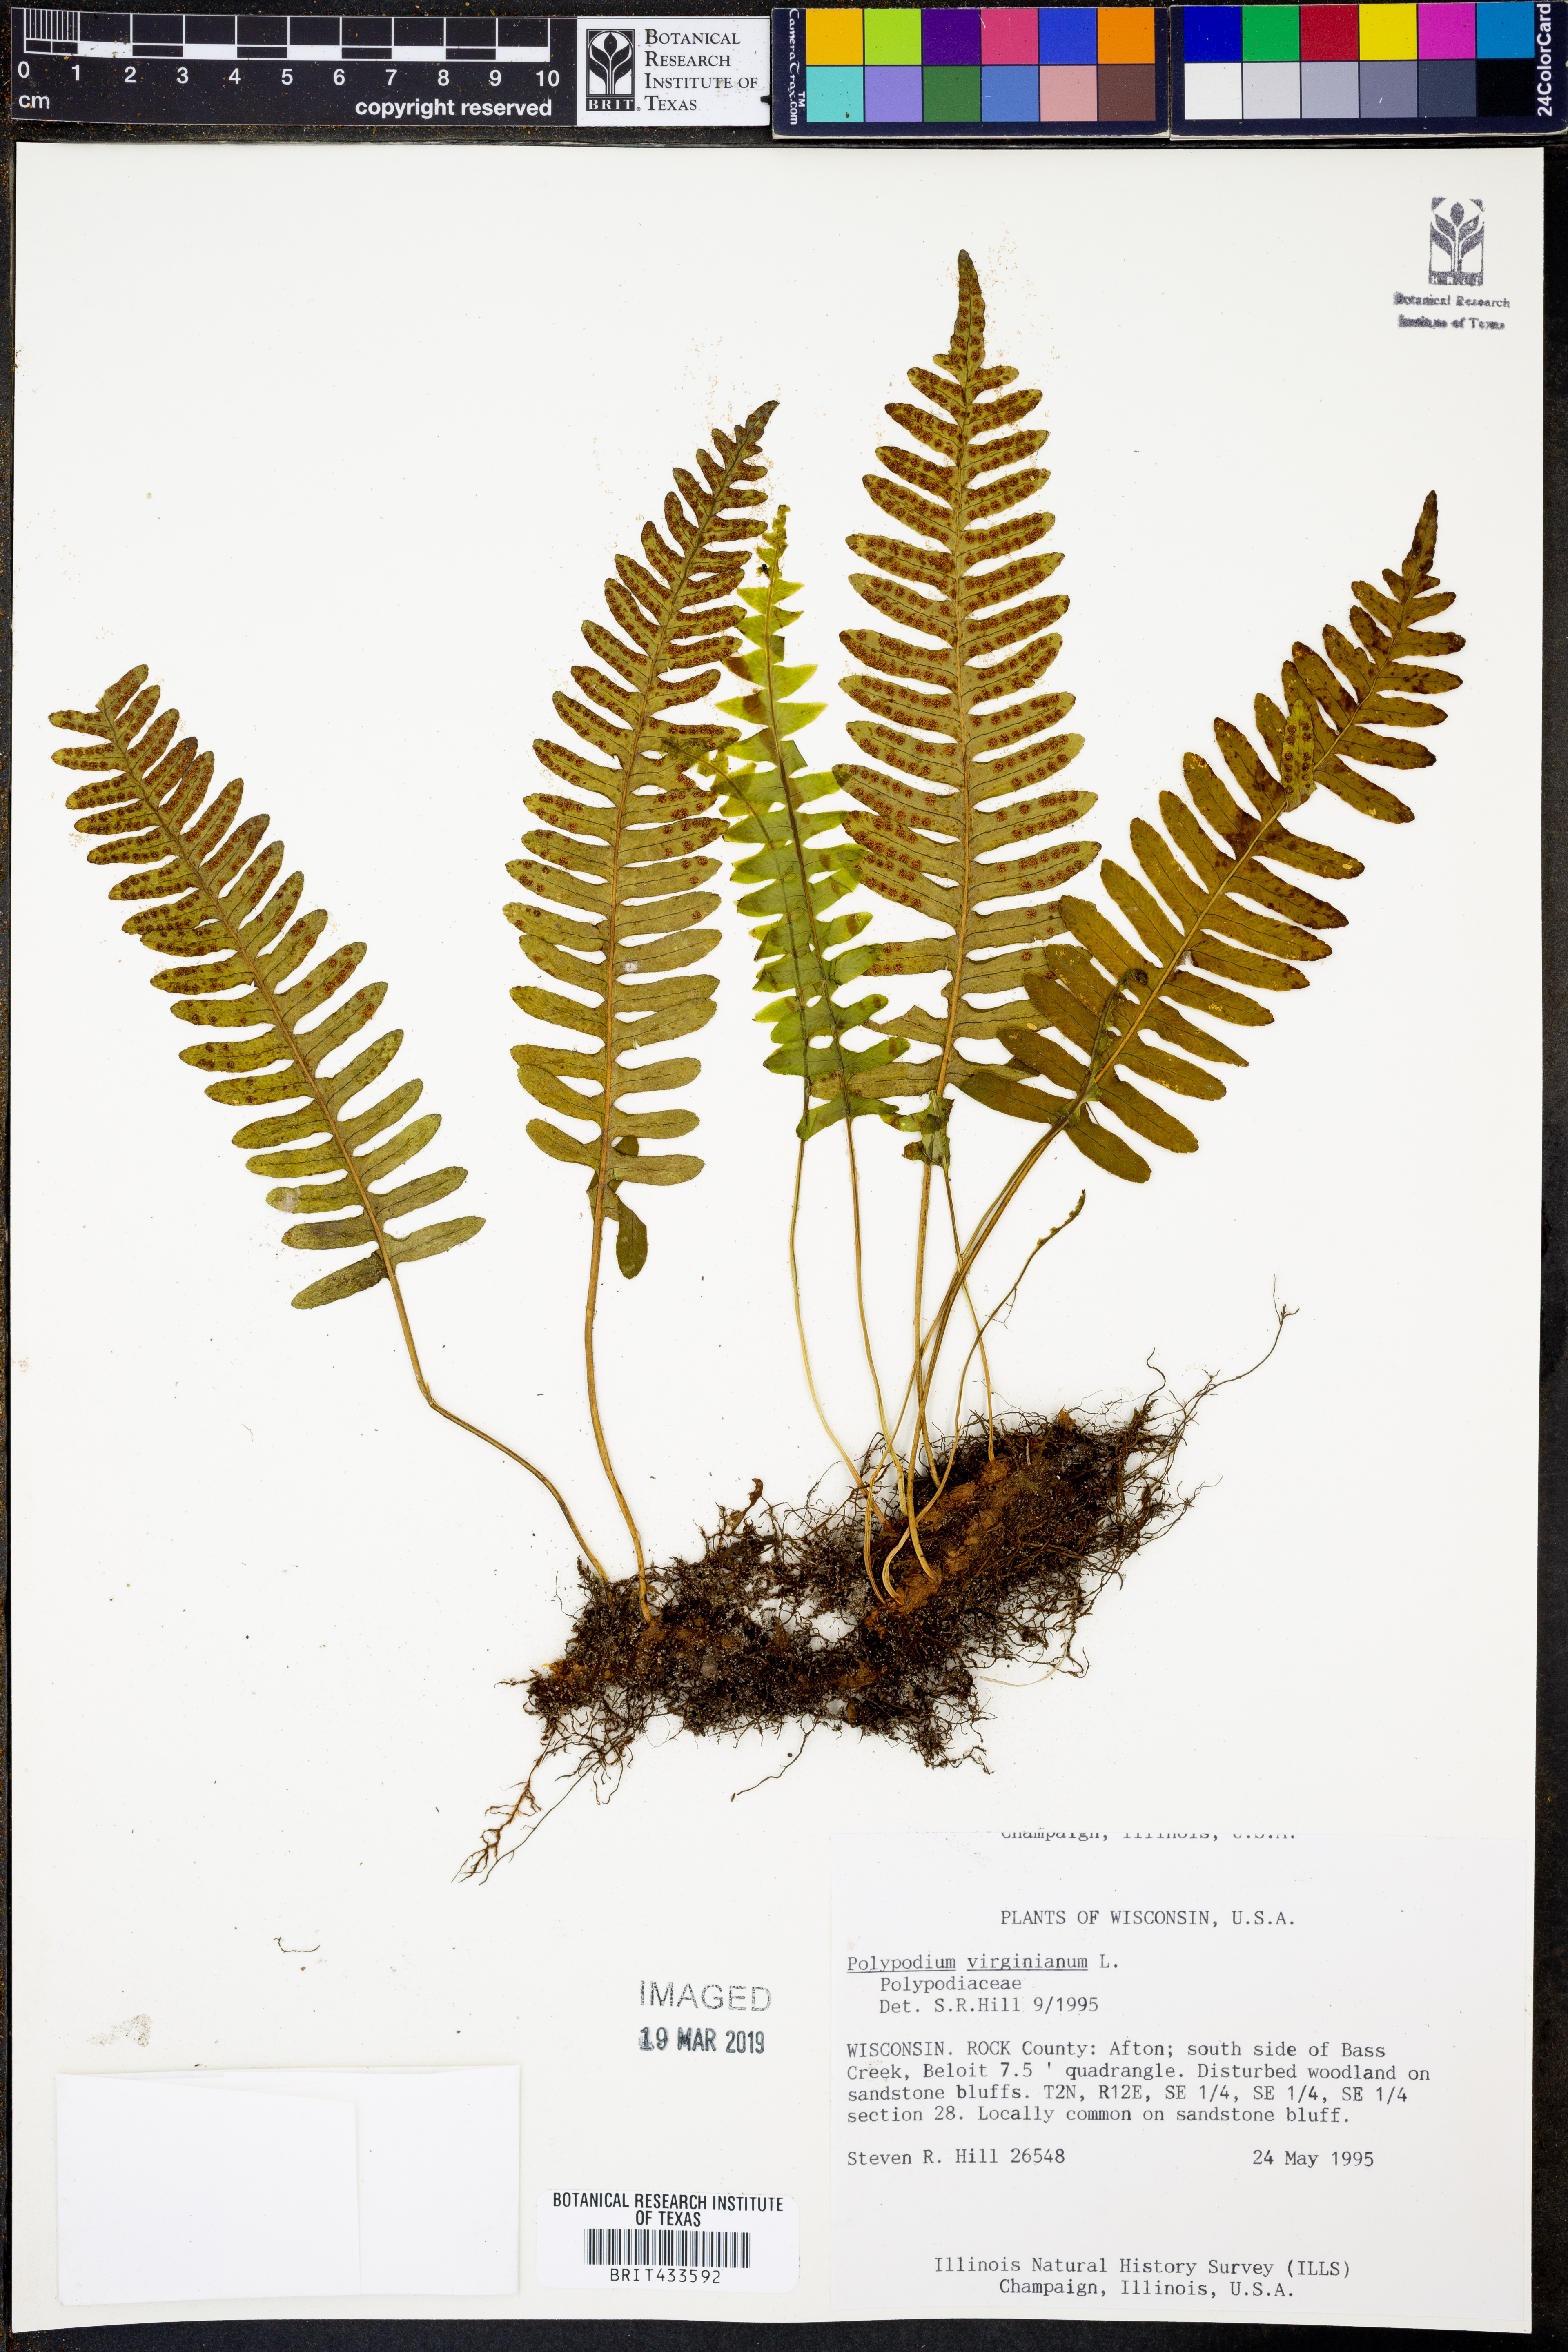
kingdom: Plantae
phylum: Tracheophyta
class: Polypodiopsida
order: Polypodiales
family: Polypodiaceae
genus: Polypodium
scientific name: Polypodium virginianum
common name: American wall fern
